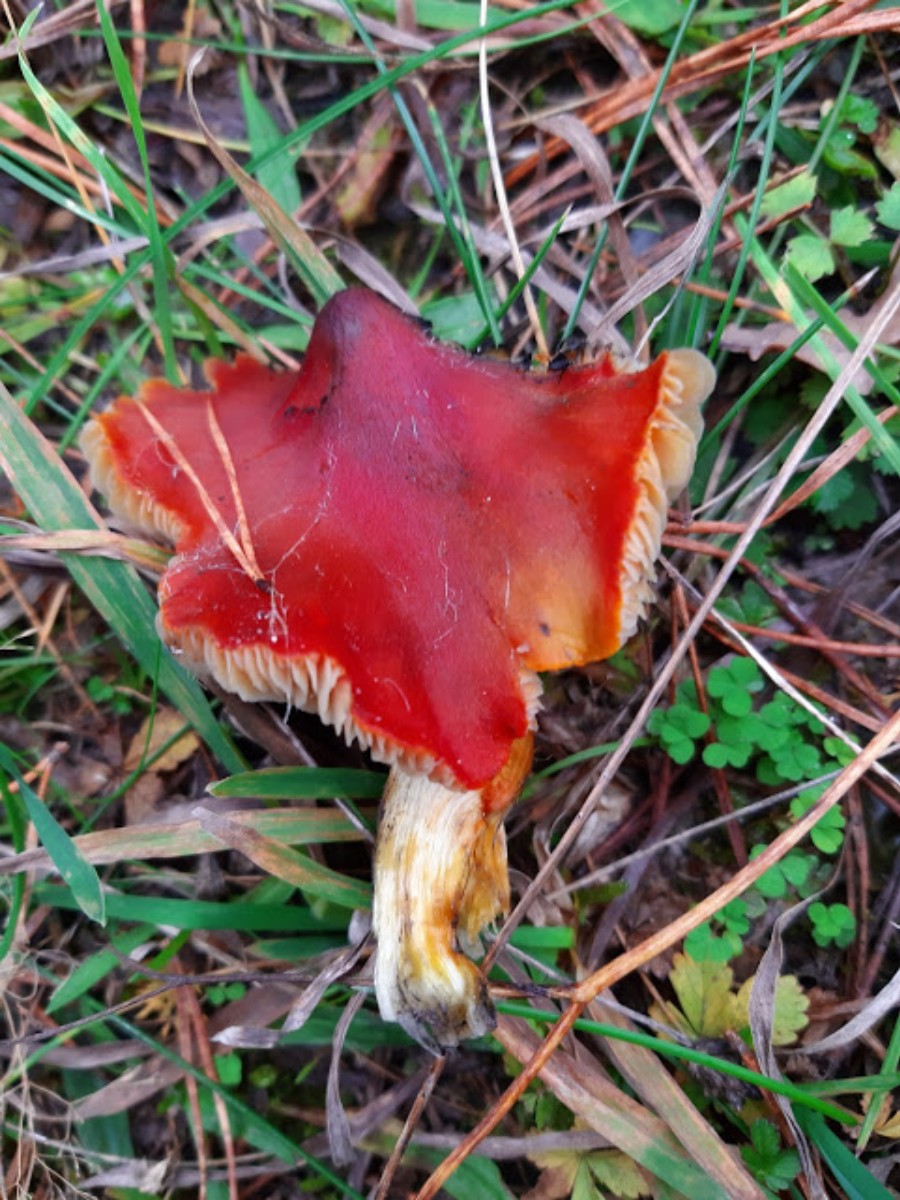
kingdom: Fungi
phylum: Basidiomycota
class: Agaricomycetes
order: Agaricales
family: Hygrophoraceae
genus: Hygrocybe
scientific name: Hygrocybe conica
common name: kegle-vokshat
